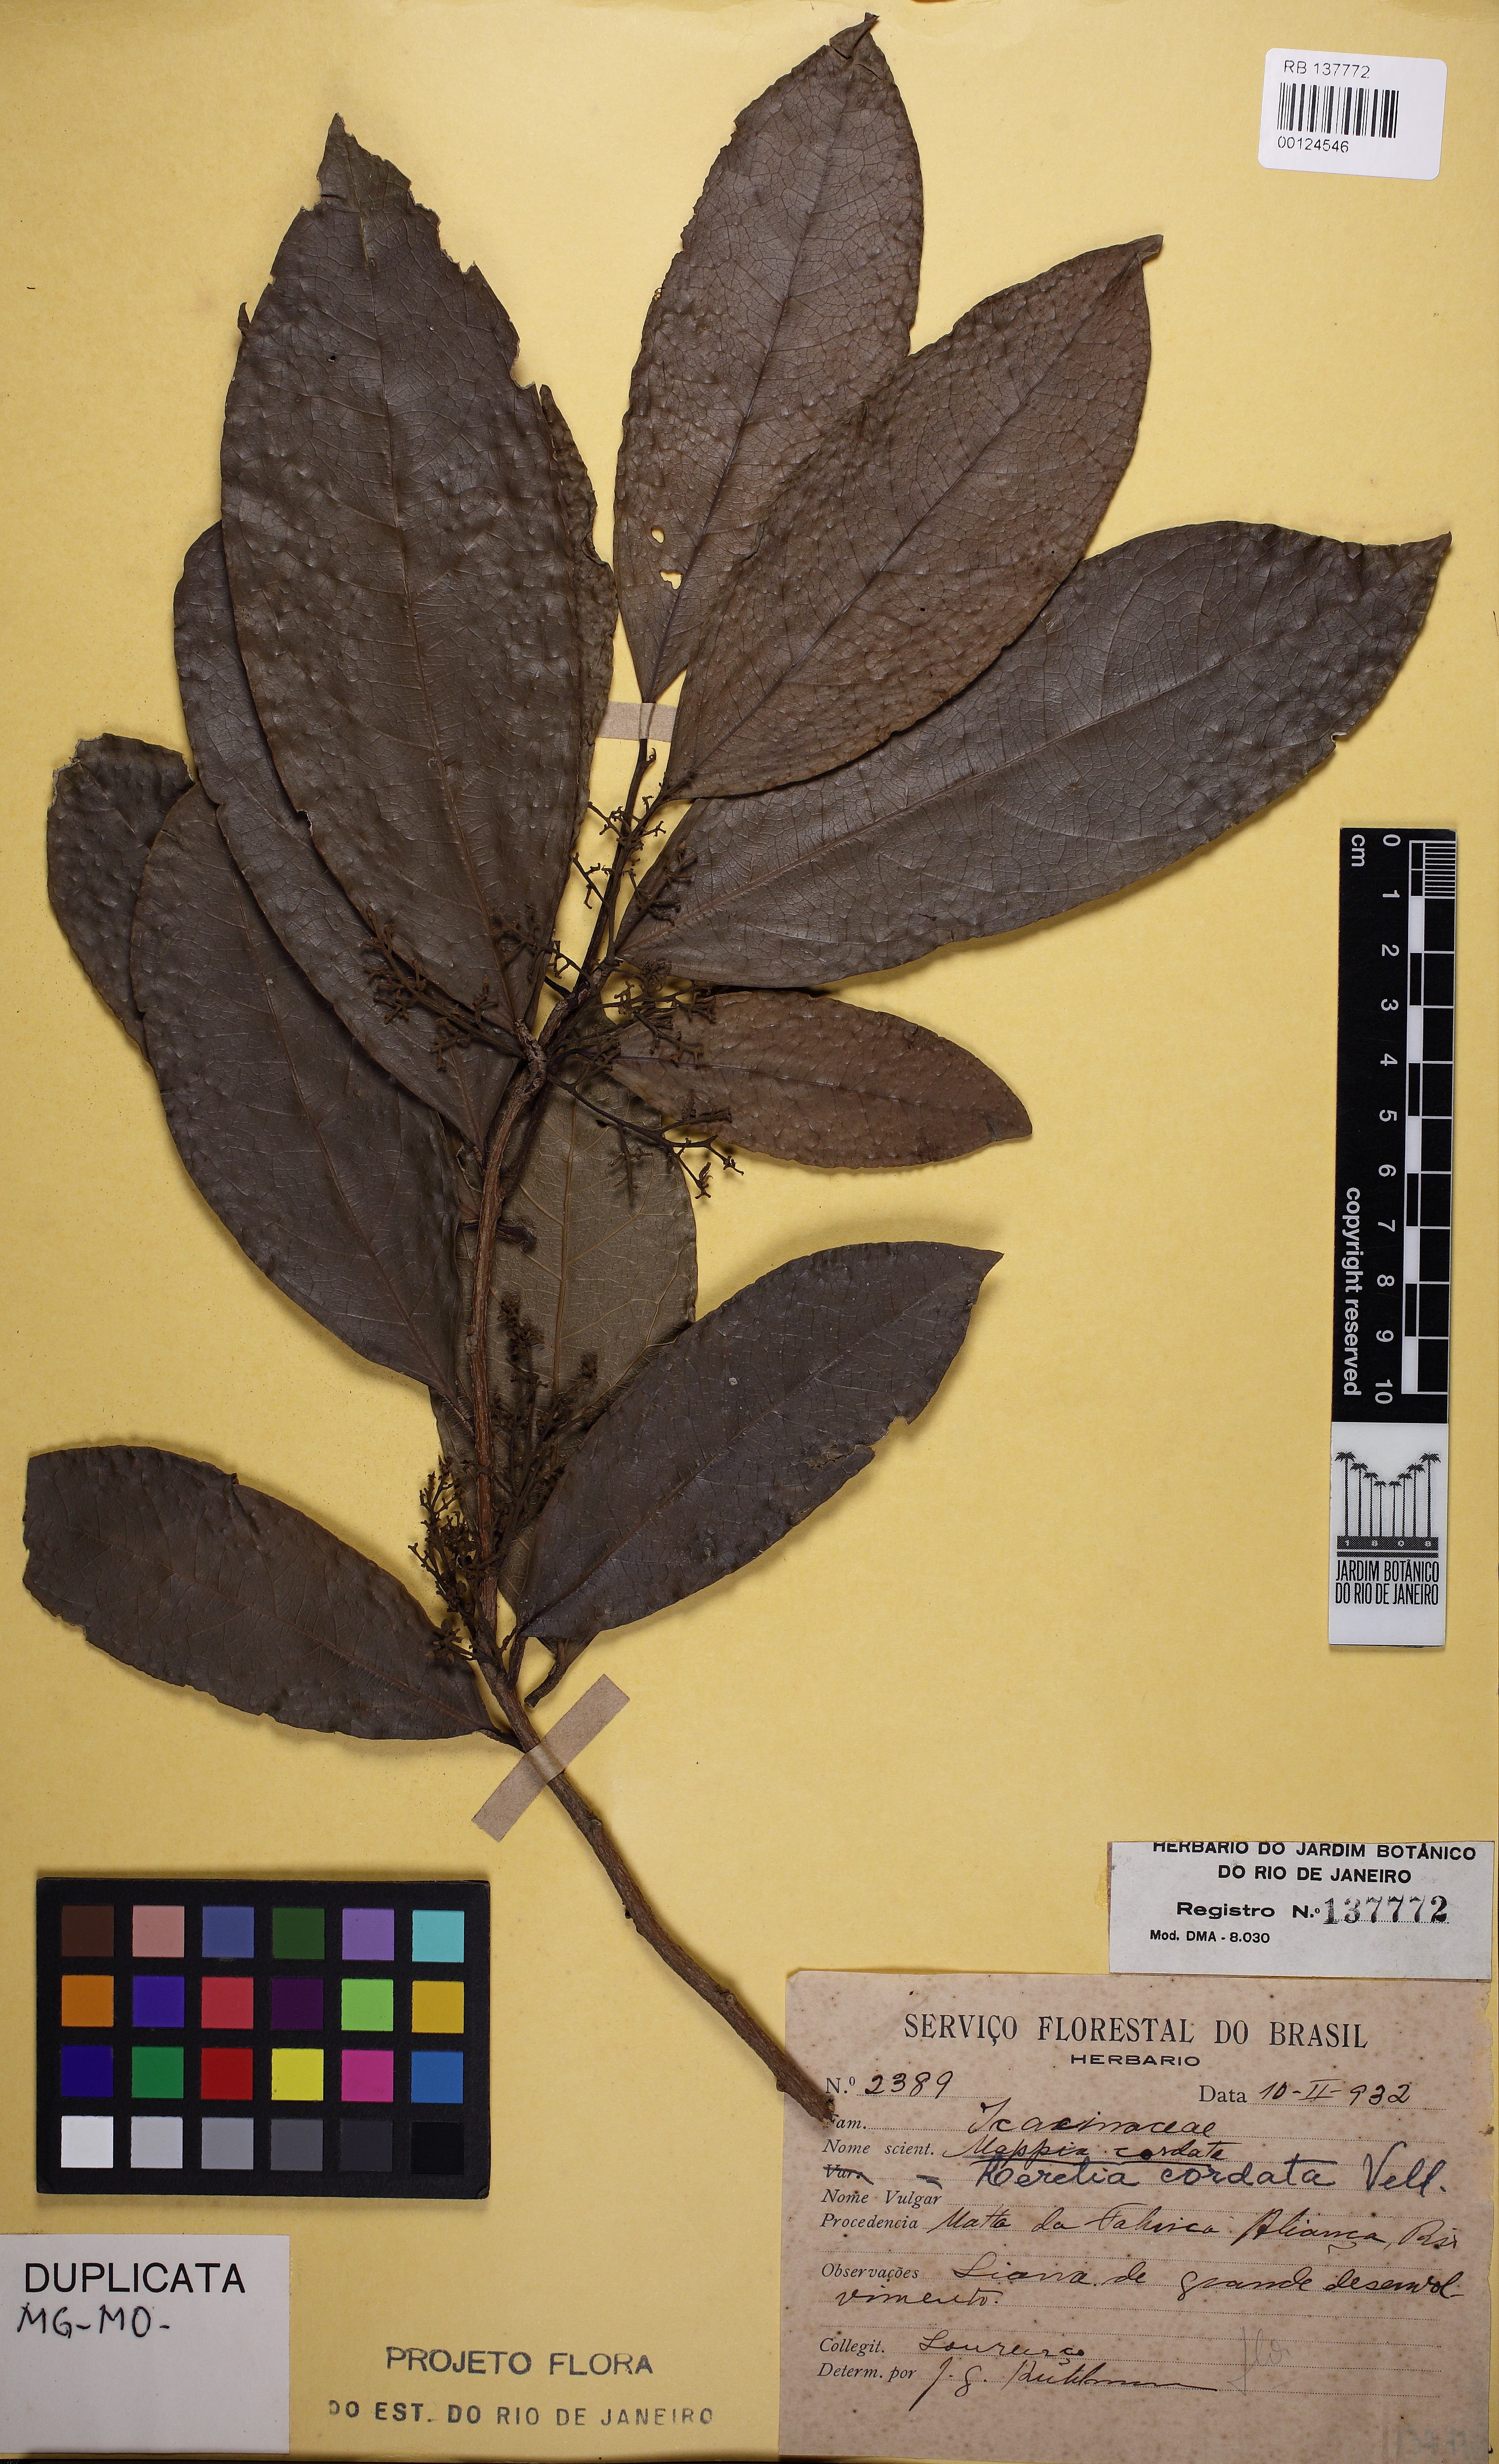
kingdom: Plantae
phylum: Tracheophyta
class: Magnoliopsida
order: Icacinales
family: Icacinaceae
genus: Leretia
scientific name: Leretia cordata
